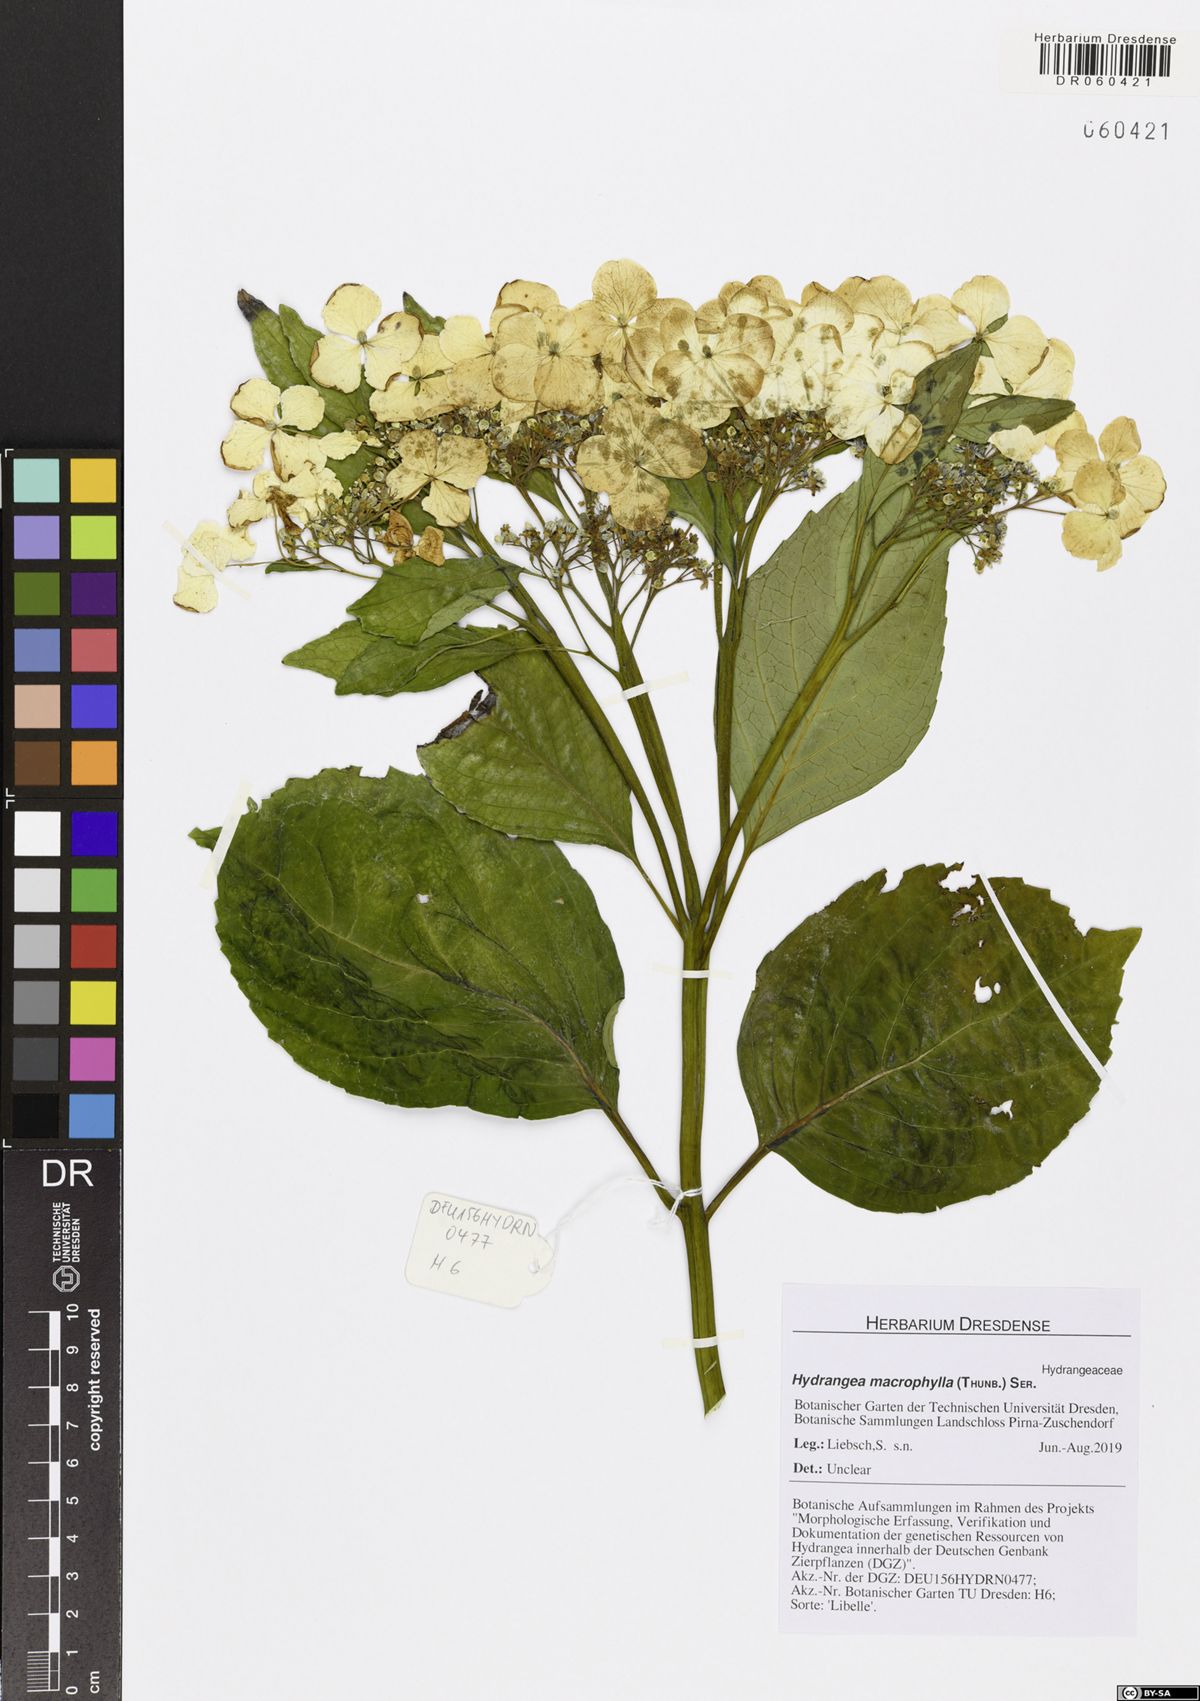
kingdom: Plantae
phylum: Tracheophyta
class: Magnoliopsida
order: Cornales
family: Hydrangeaceae
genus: Hydrangea
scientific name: Hydrangea macrophylla
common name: Hydrangea
